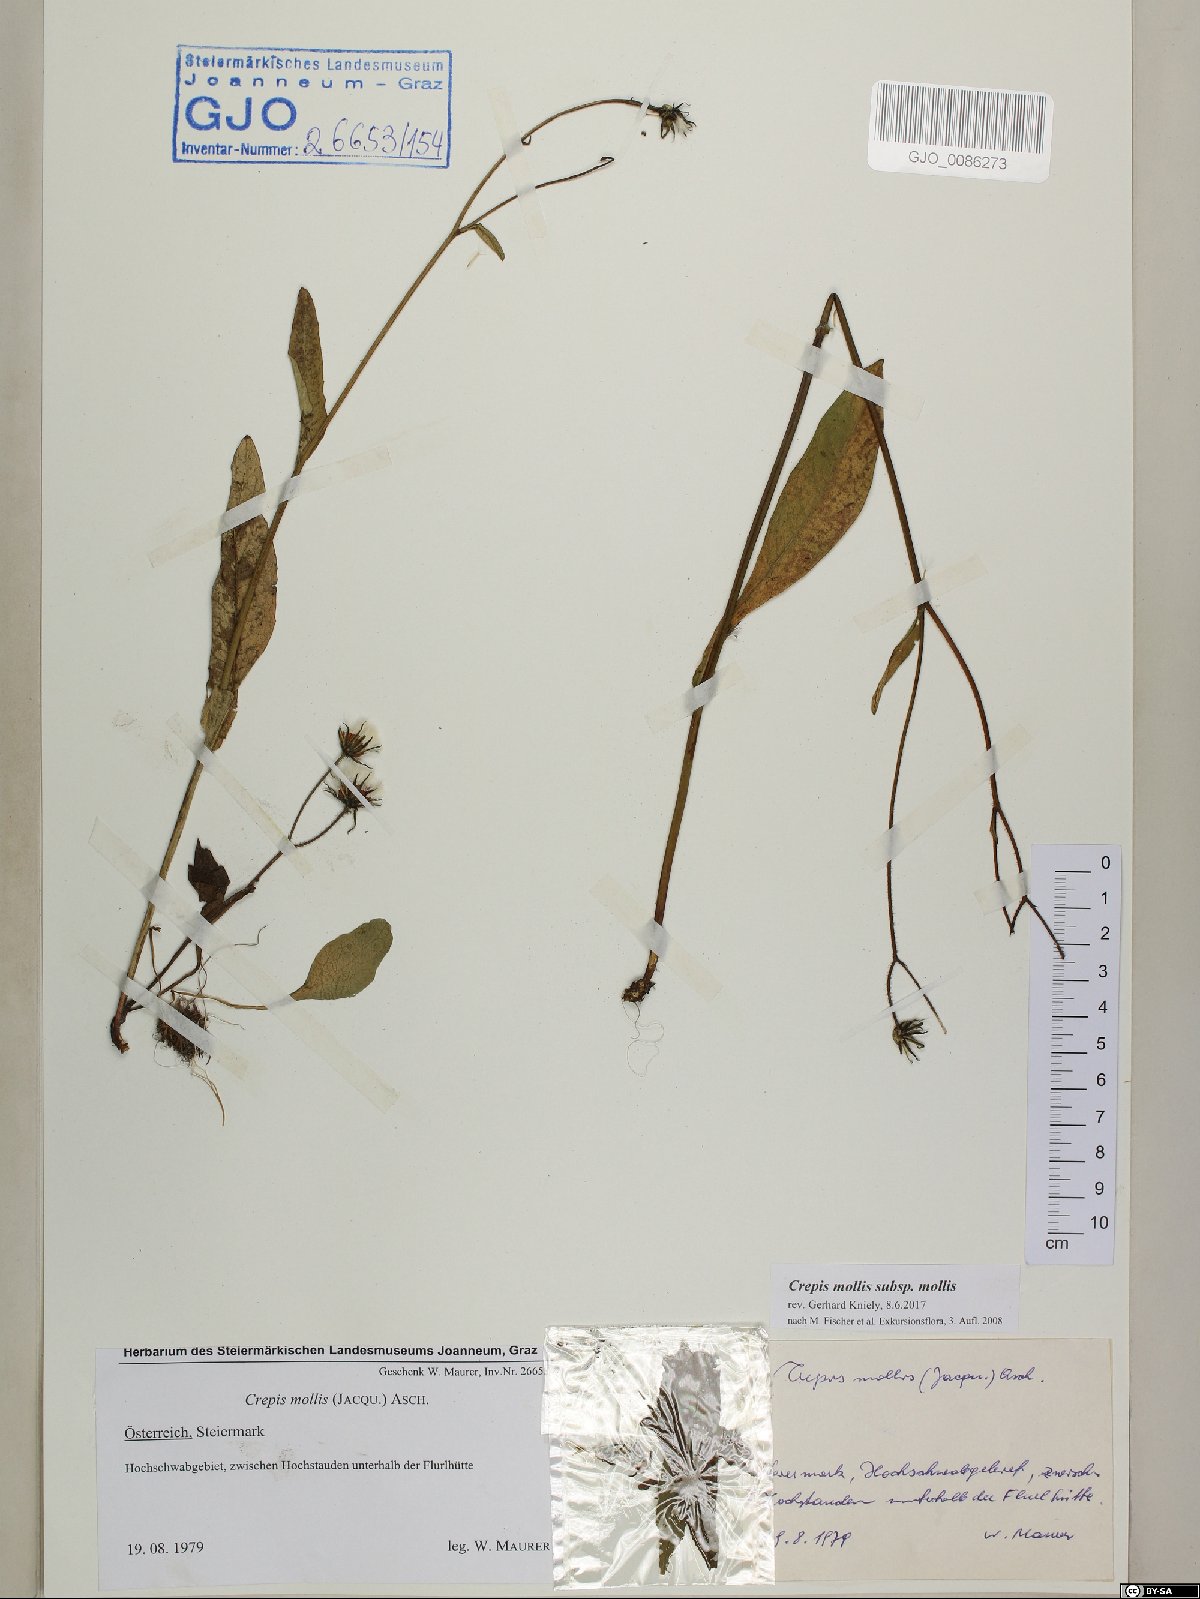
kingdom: Plantae
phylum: Tracheophyta
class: Magnoliopsida
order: Asterales
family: Asteraceae
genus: Crepis
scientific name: Crepis mollis
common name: Northern hawk's-beard
